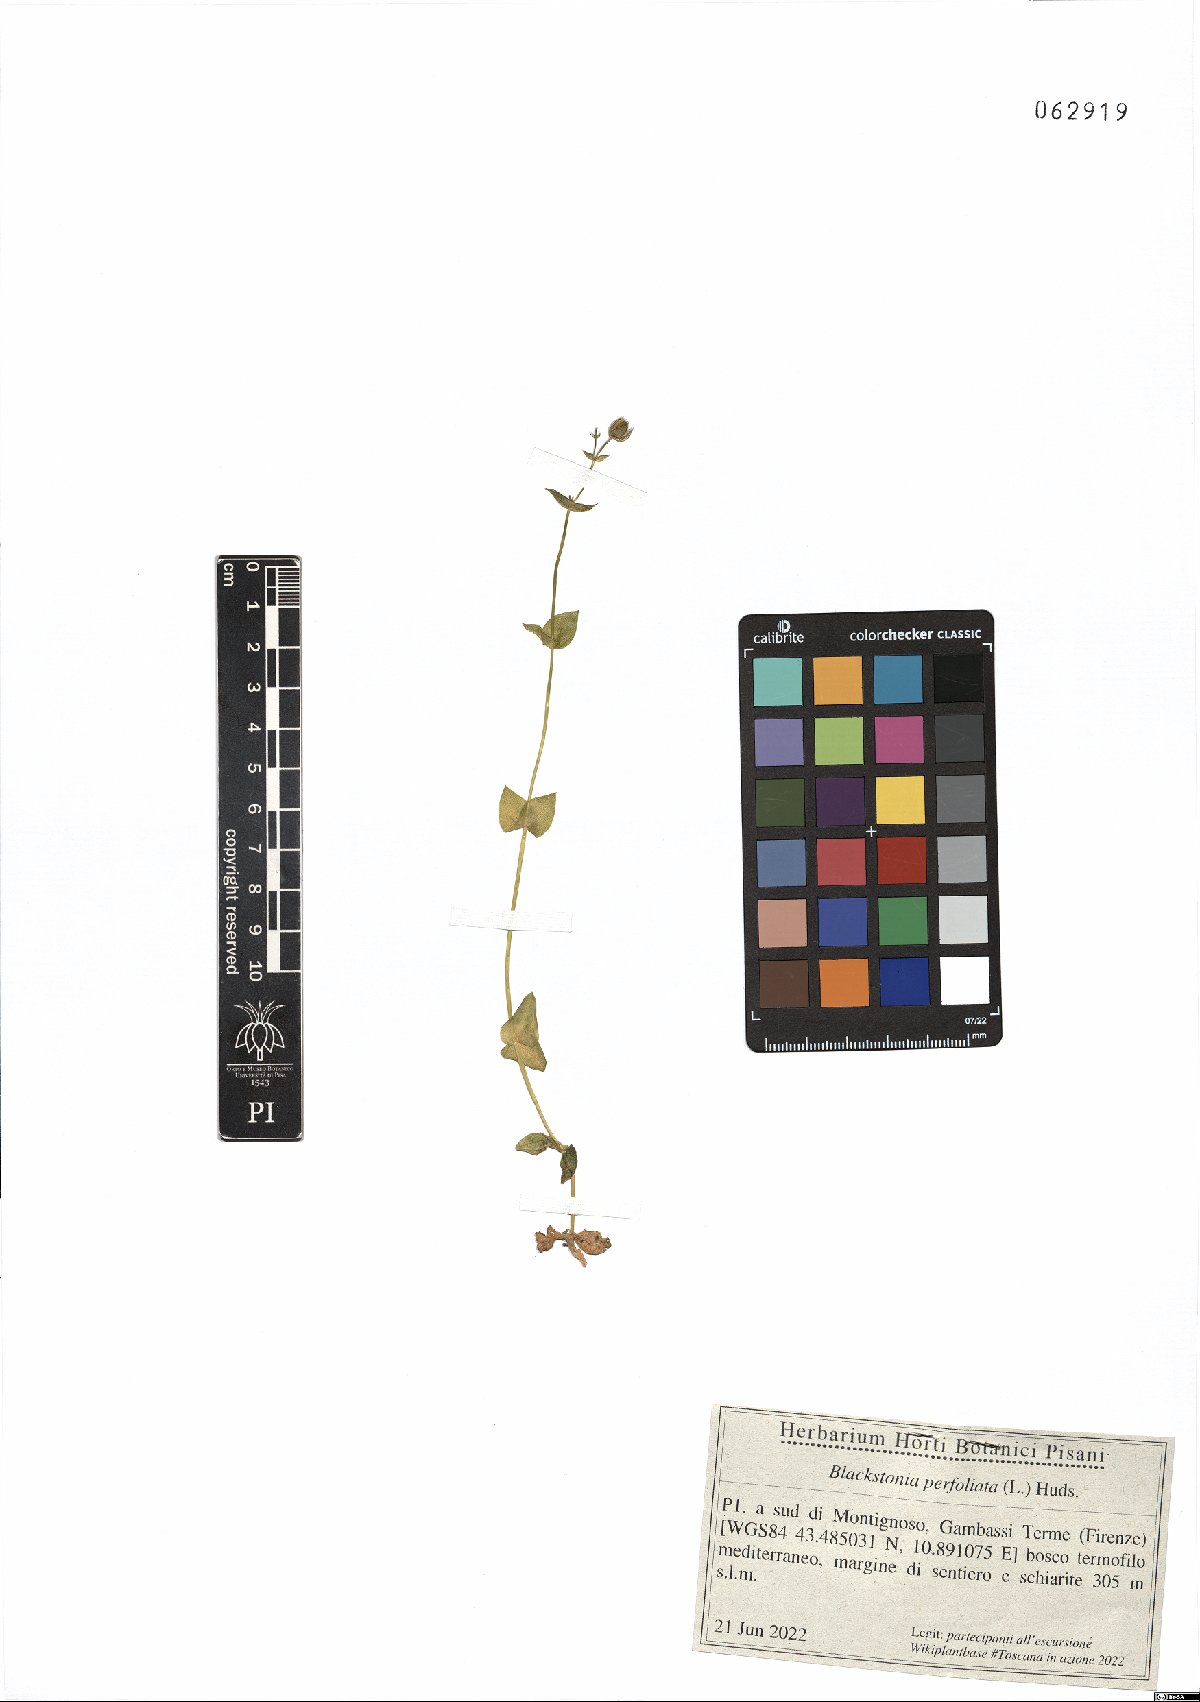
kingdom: Plantae
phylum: Tracheophyta
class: Magnoliopsida
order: Gentianales
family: Gentianaceae
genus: Blackstonia
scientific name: Blackstonia perfoliata
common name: Yellow-wort
